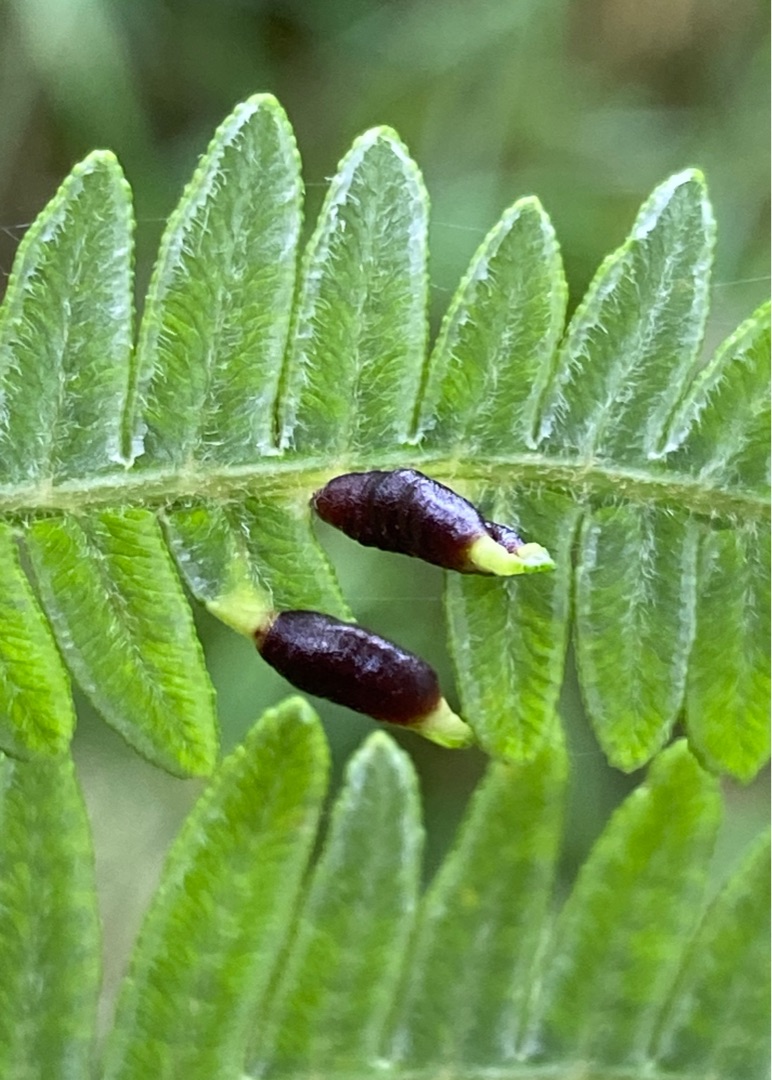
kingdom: Animalia
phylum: Arthropoda
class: Insecta
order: Diptera
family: Cecidomyiidae
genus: Dasineura
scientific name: Dasineura pteridis
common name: Orange ørnebregnegalmyg
